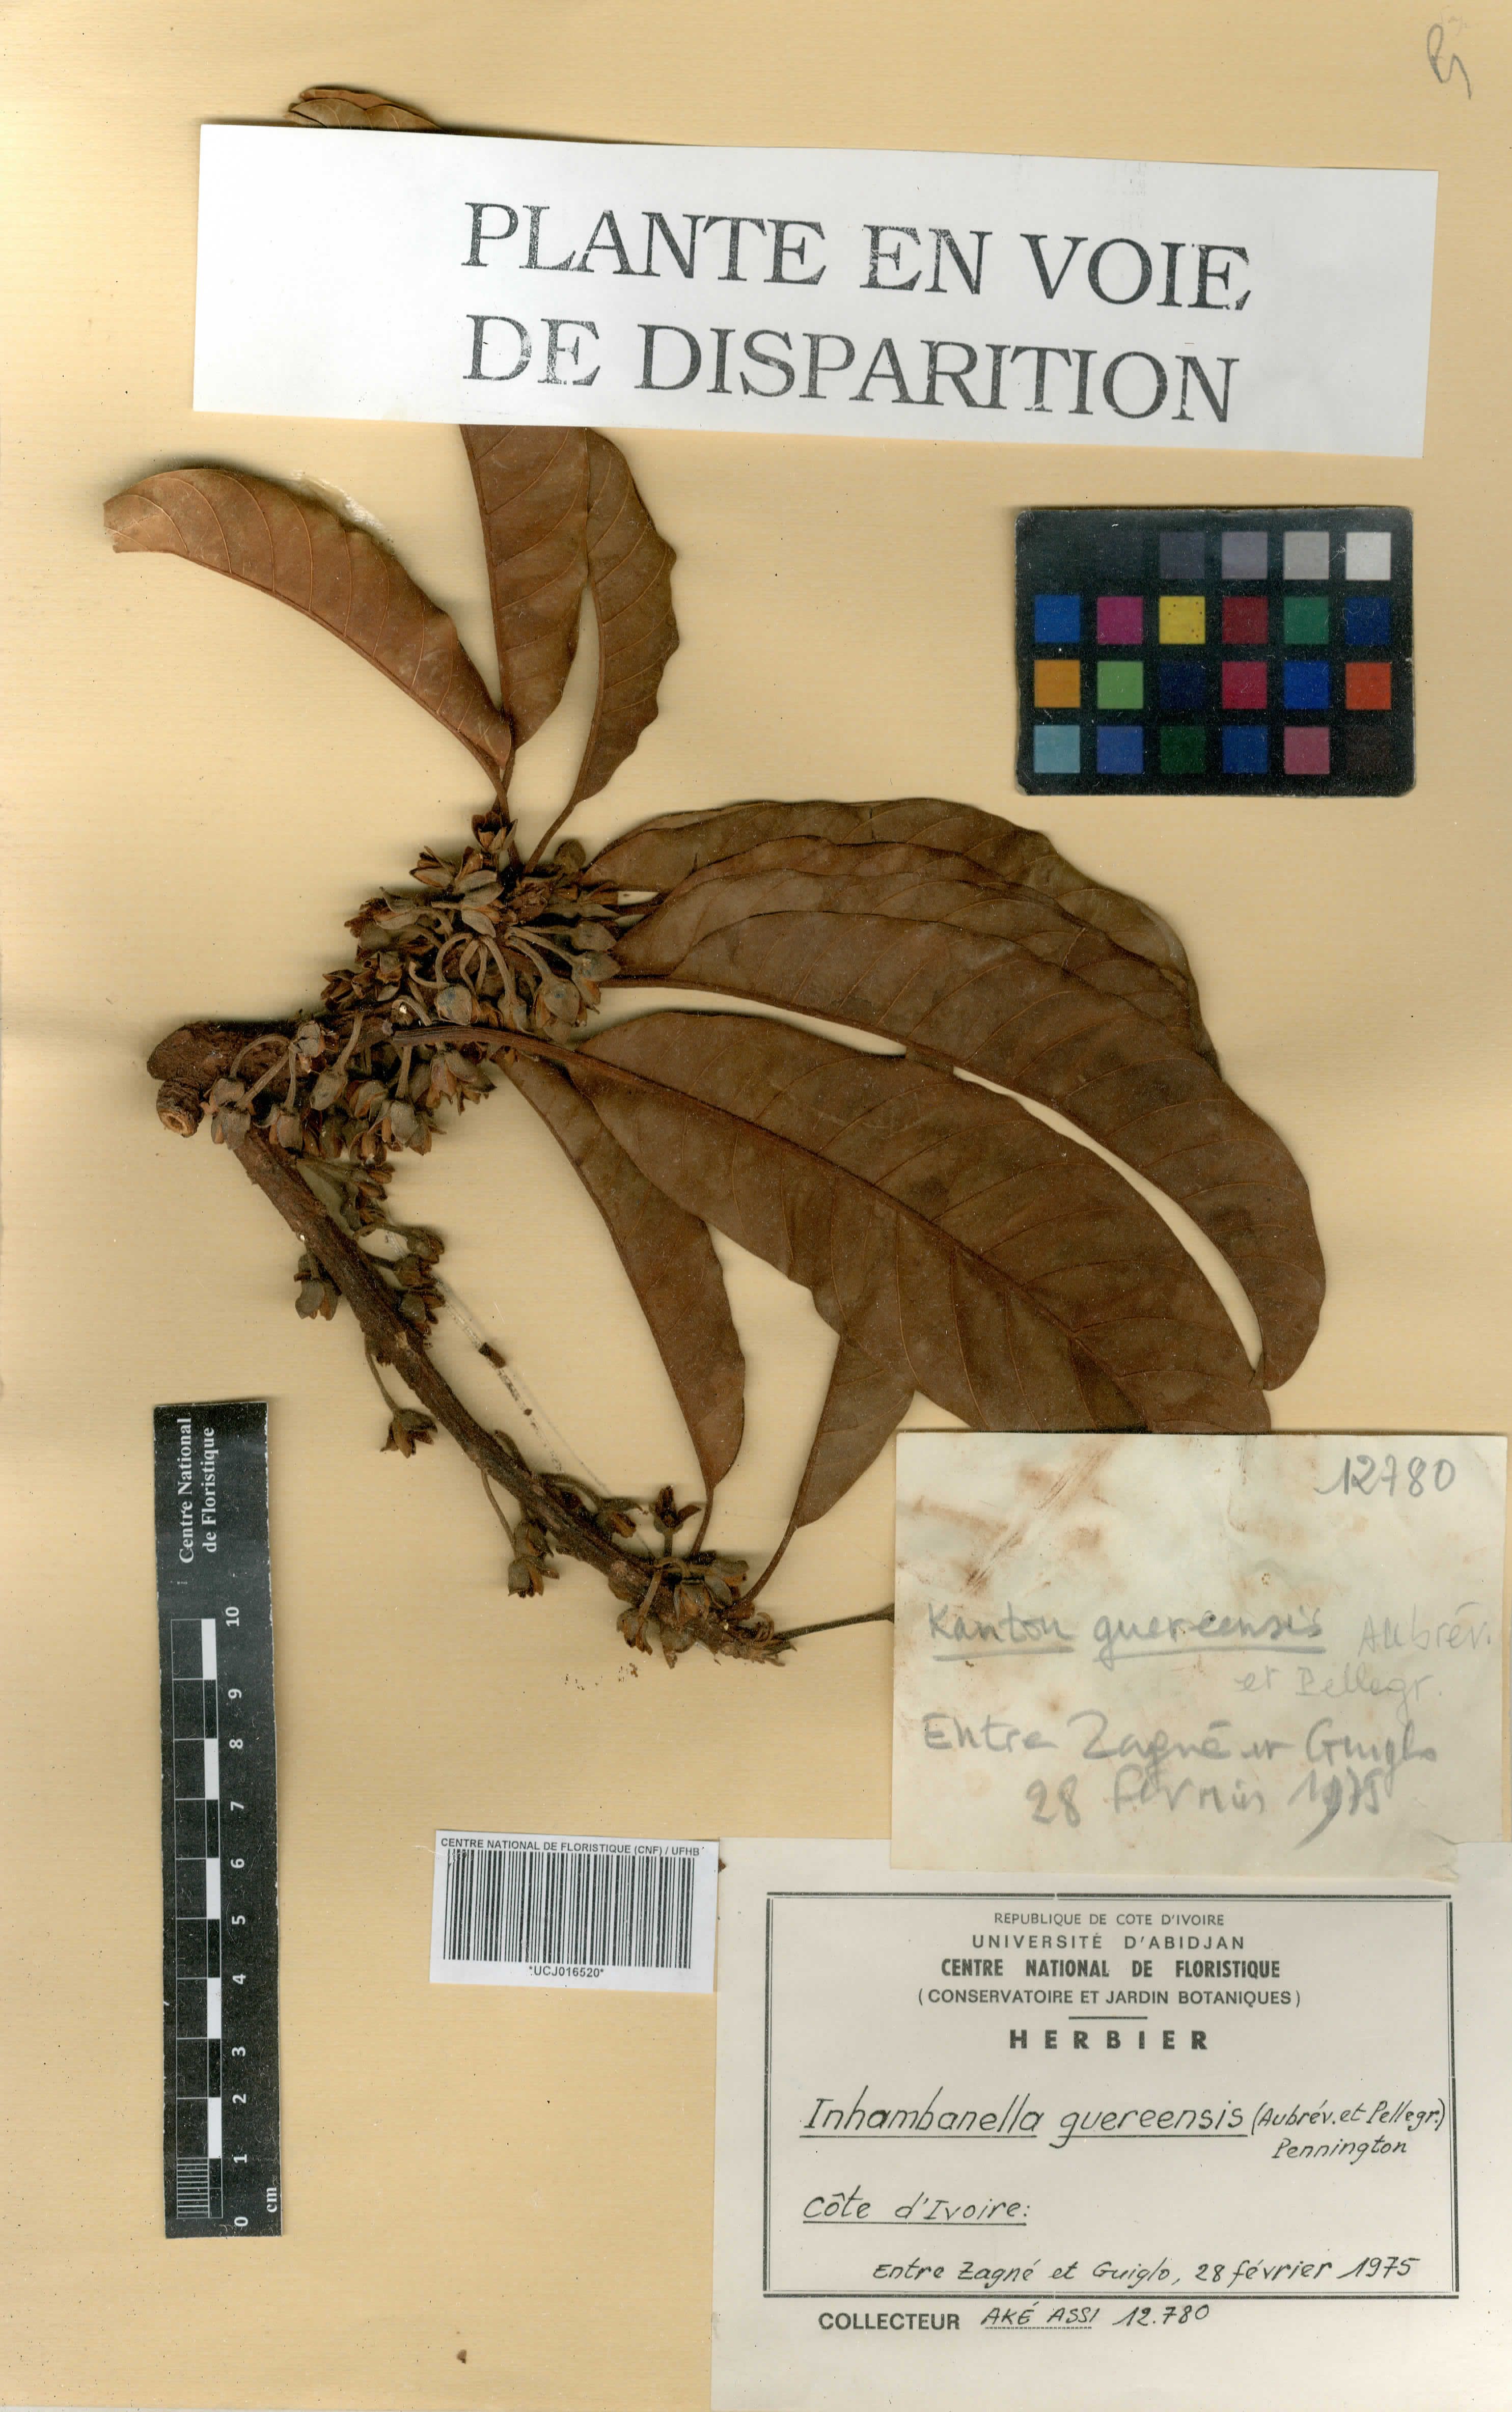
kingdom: Plantae
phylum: Tracheophyta
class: Magnoliopsida
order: Ericales
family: Sapotaceae
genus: Inhambanella
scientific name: Inhambanella guereensis
